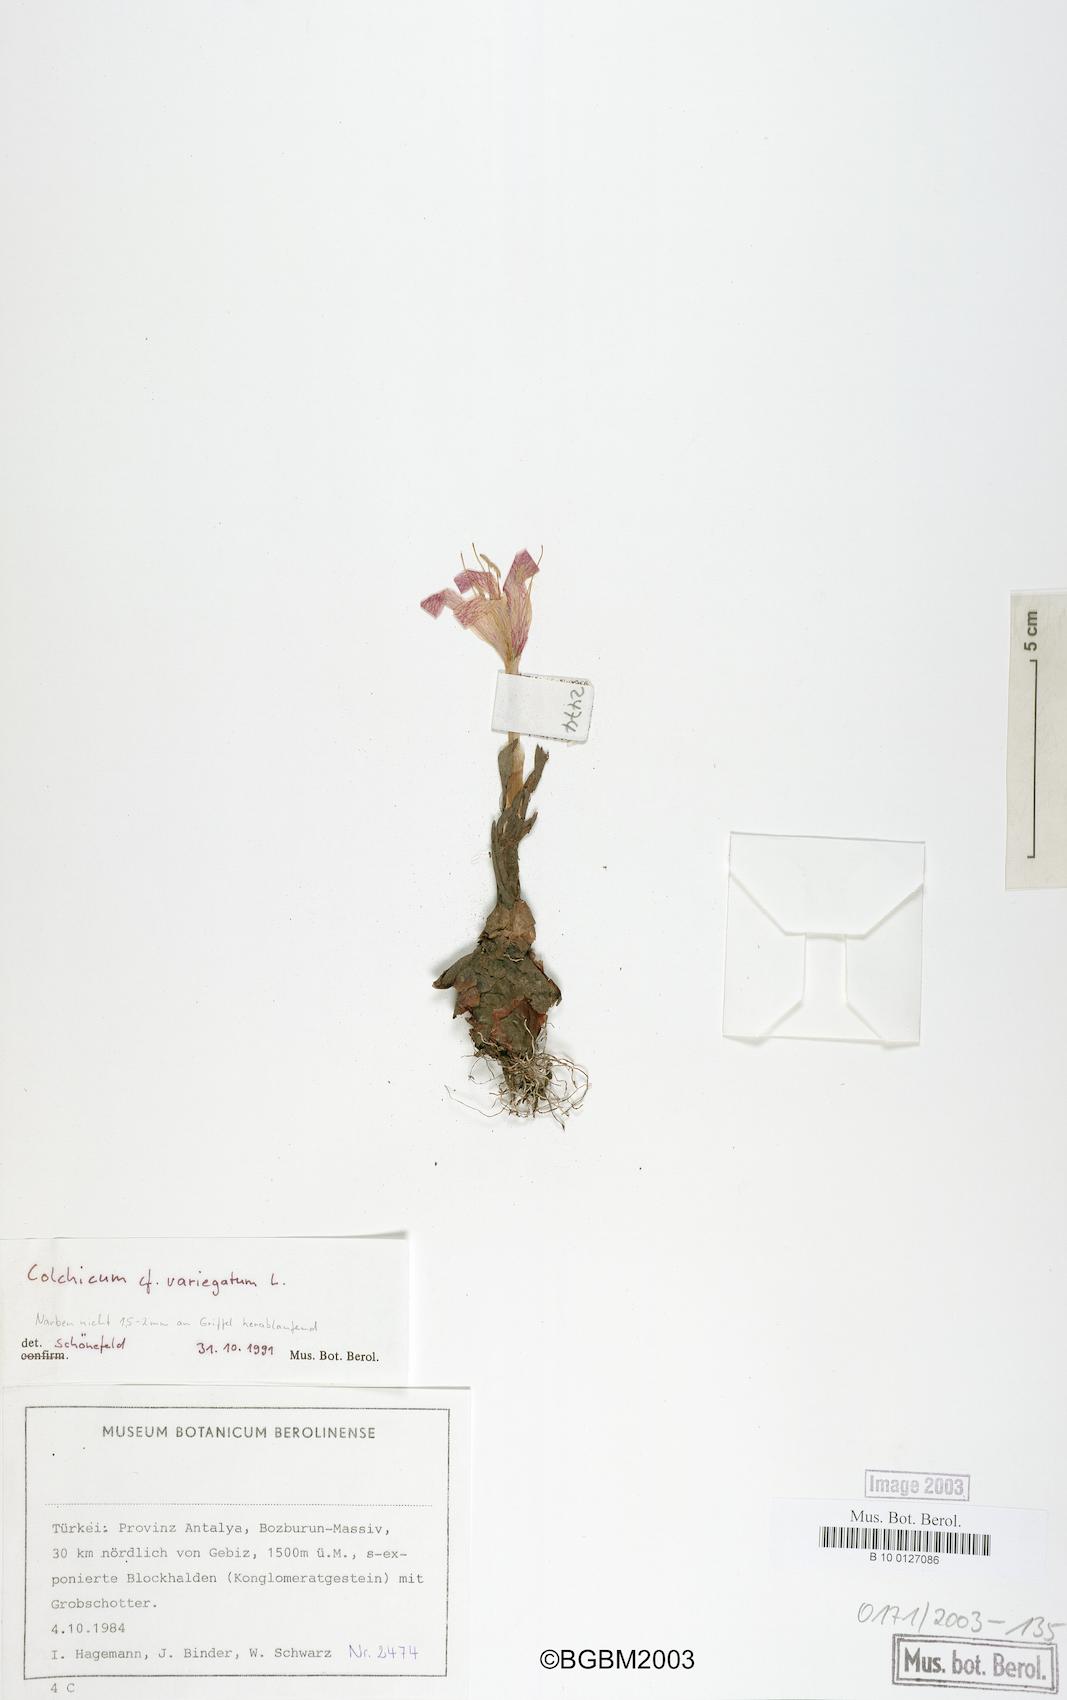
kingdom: Plantae
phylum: Tracheophyta
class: Liliopsida
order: Liliales
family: Colchicaceae
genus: Colchicum
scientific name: Colchicum variegatum
